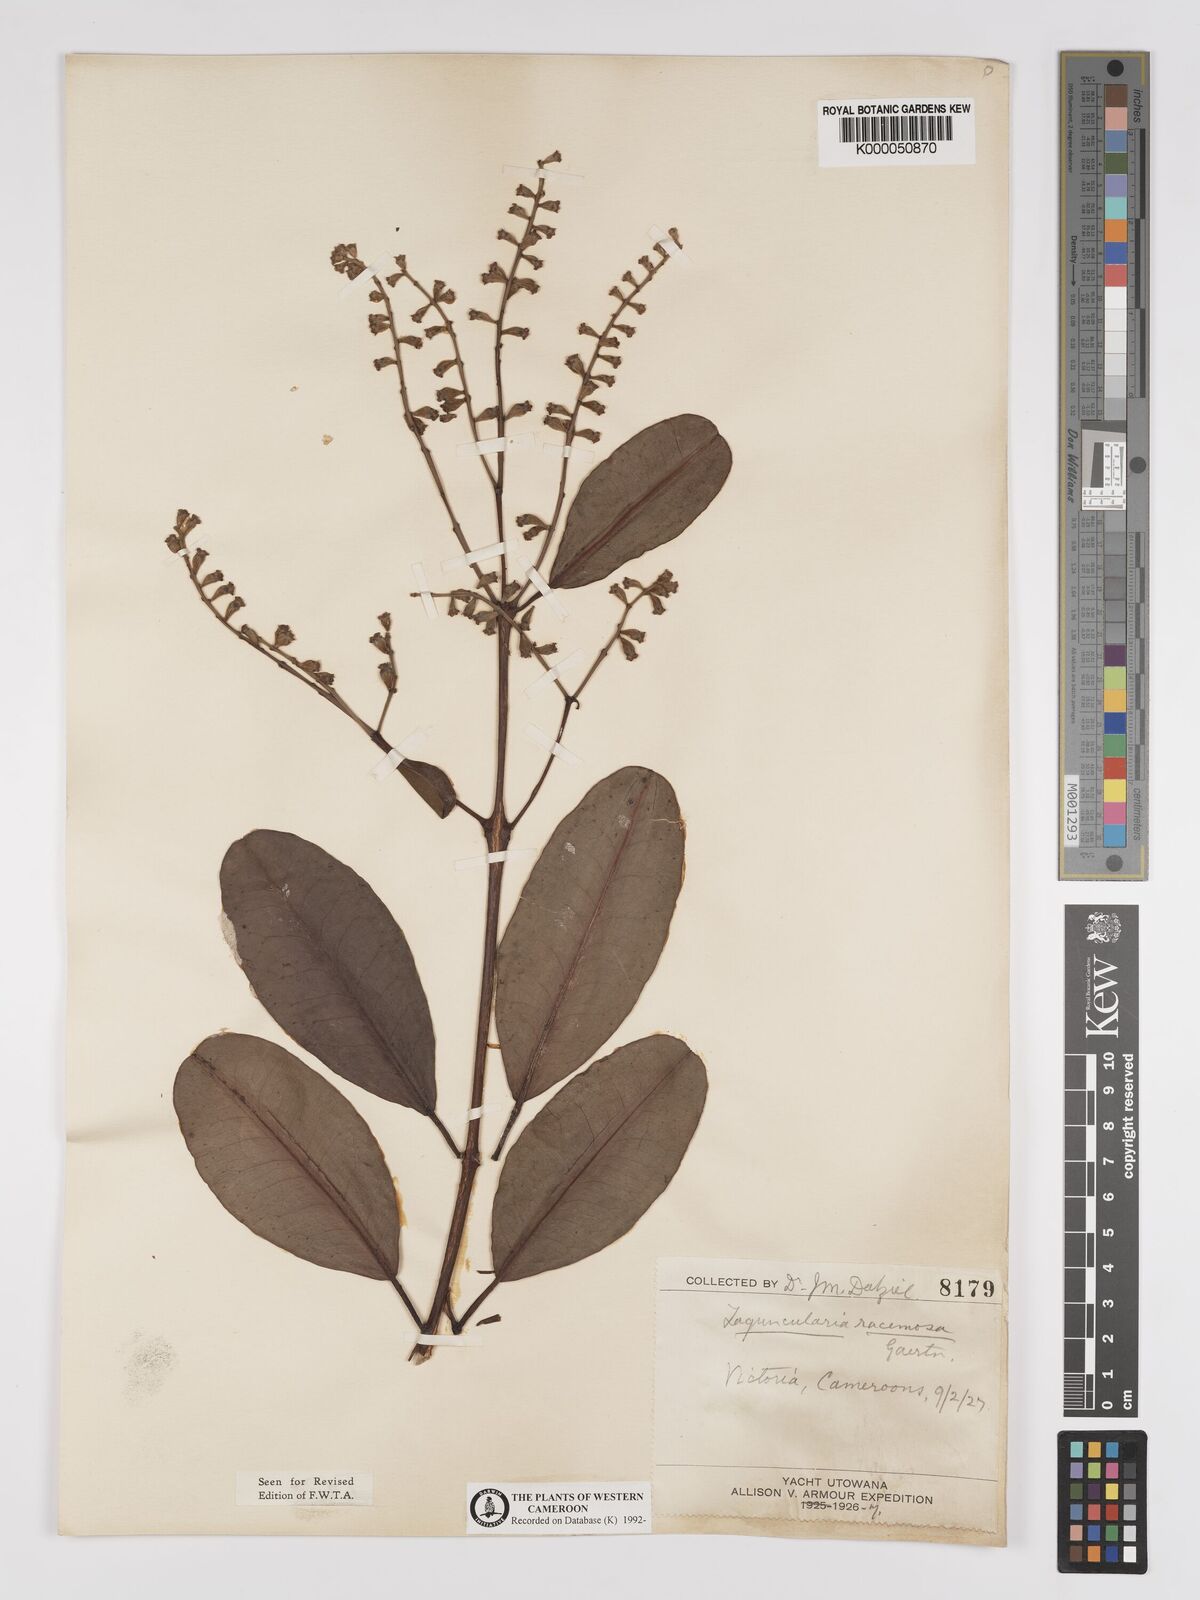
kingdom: Plantae
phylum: Tracheophyta
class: Magnoliopsida
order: Myrtales
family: Combretaceae
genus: Laguncularia
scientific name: Laguncularia racemosa
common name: White mangrove
